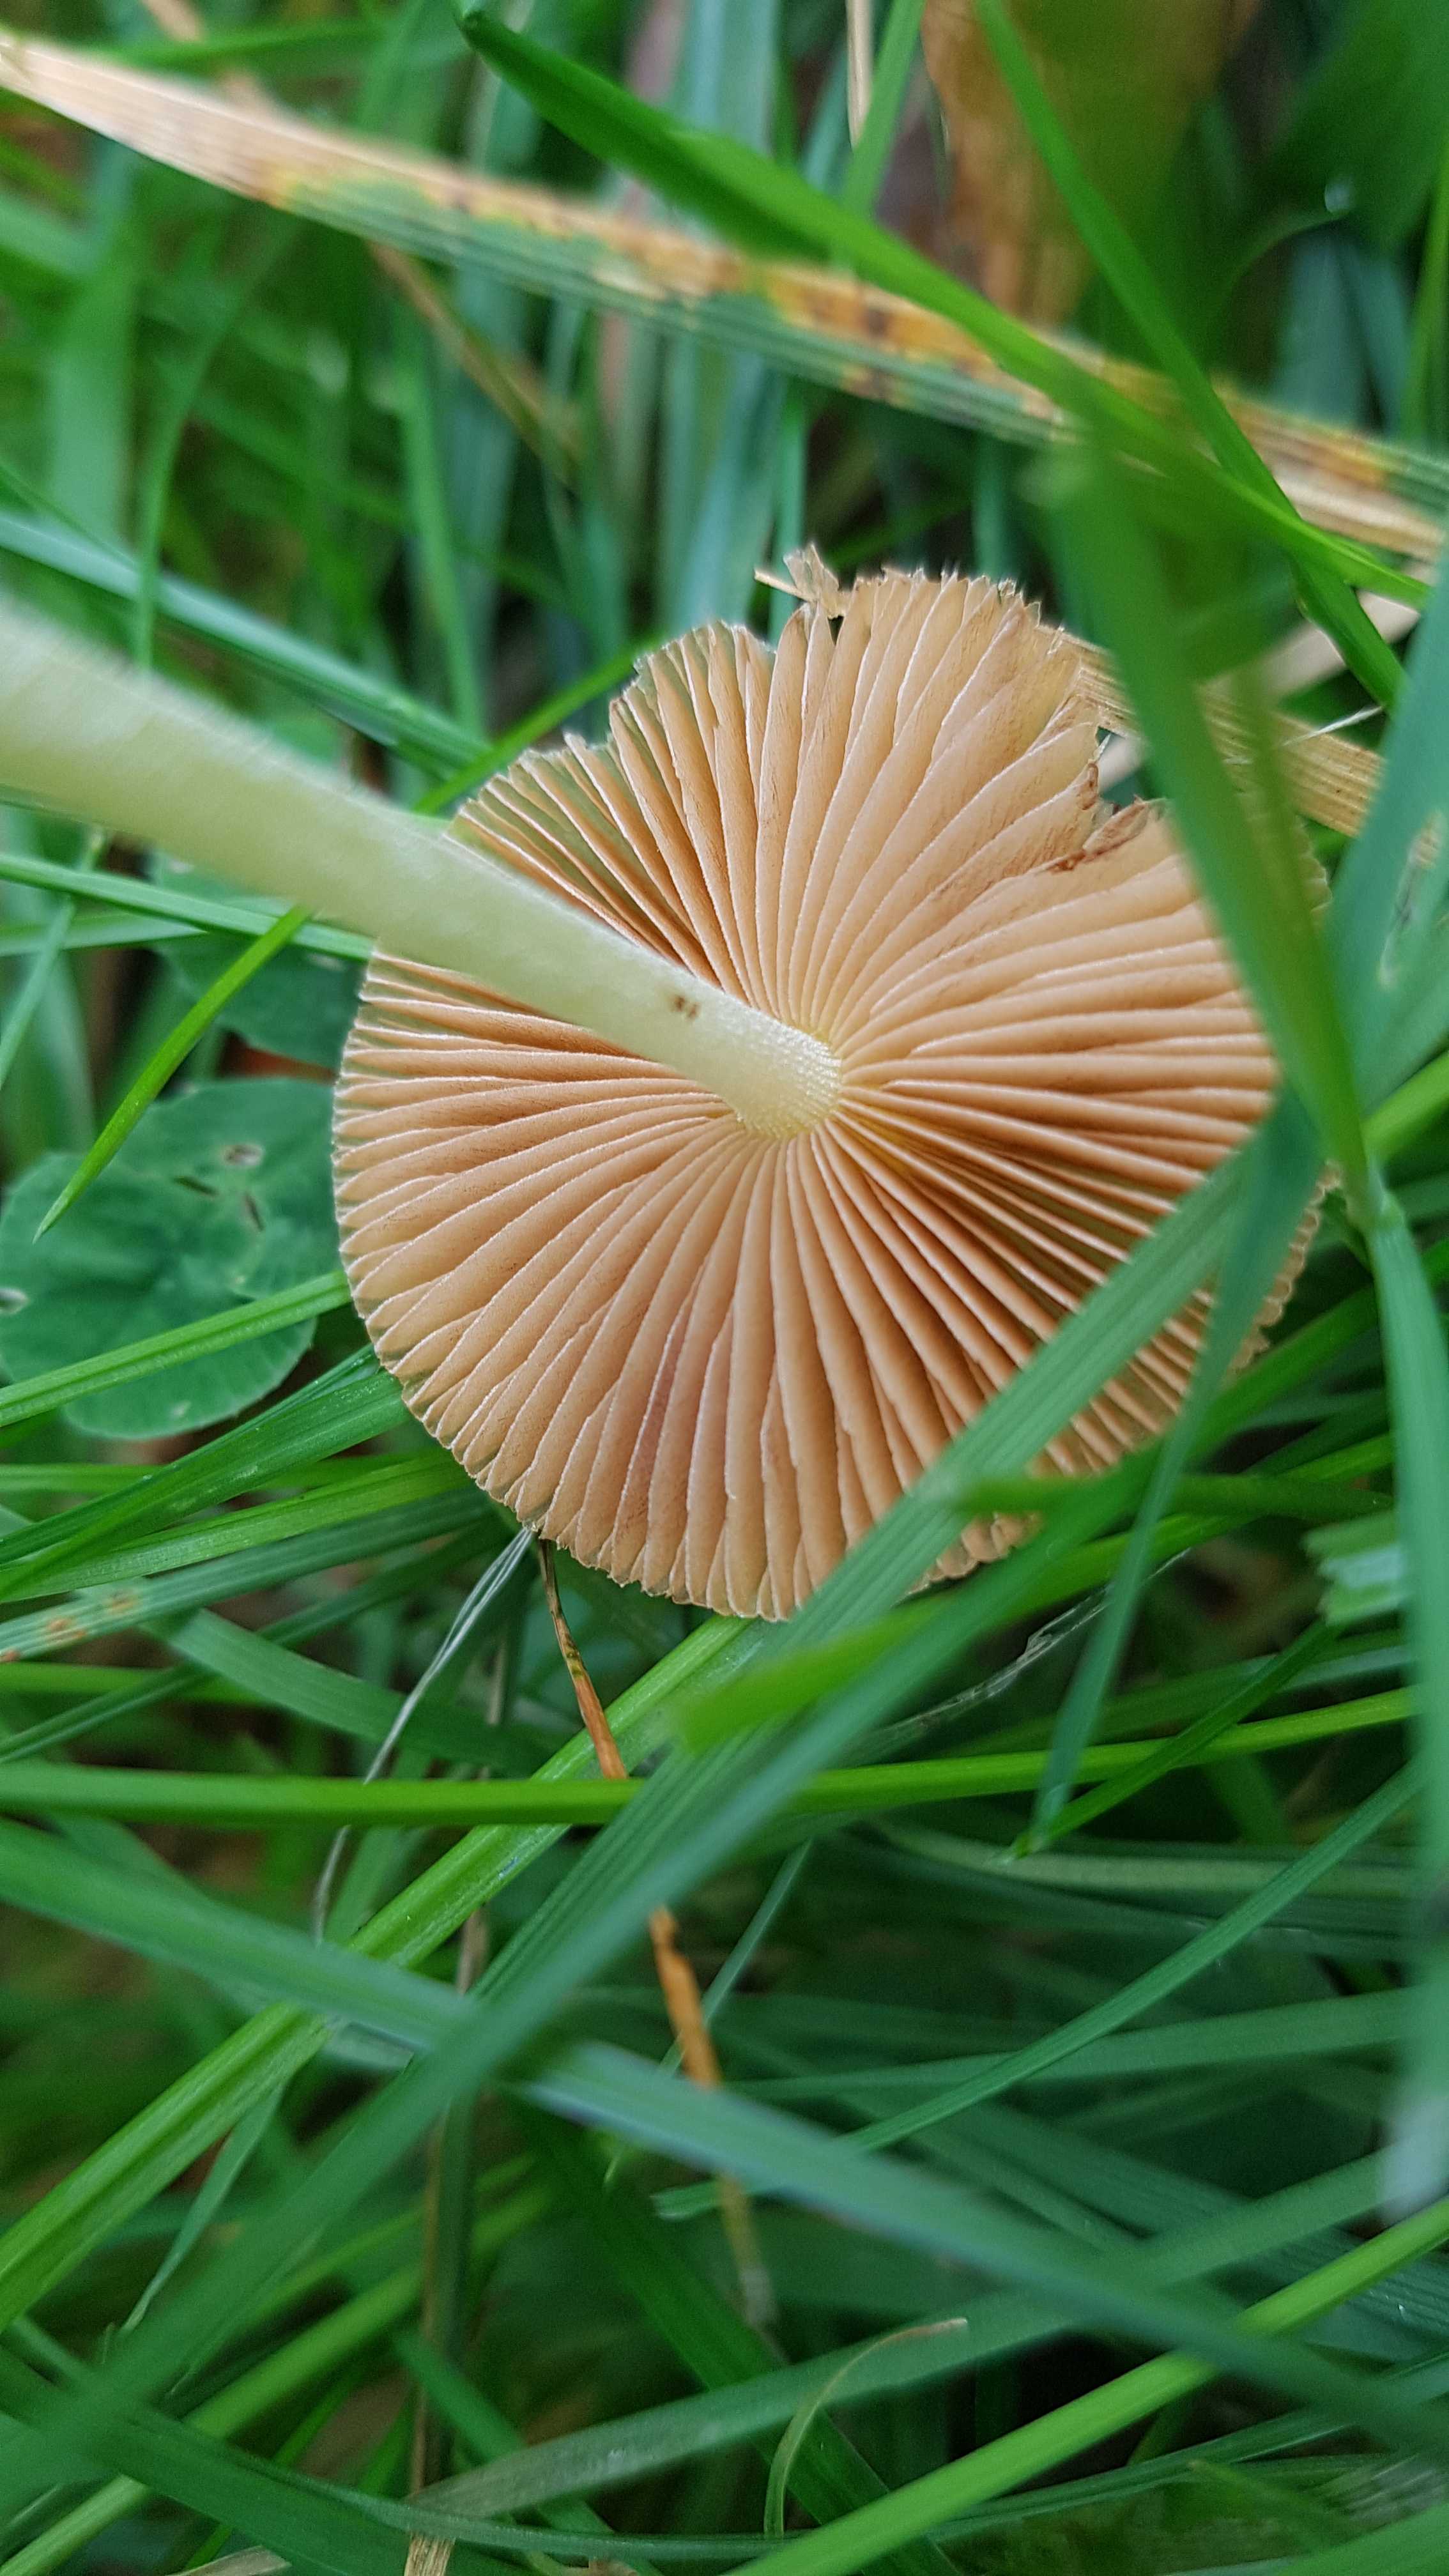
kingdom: Fungi
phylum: Basidiomycota
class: Agaricomycetes
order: Agaricales
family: Bolbitiaceae
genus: Bolbitius
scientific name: Bolbitius titubans
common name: almindelig gulhat
